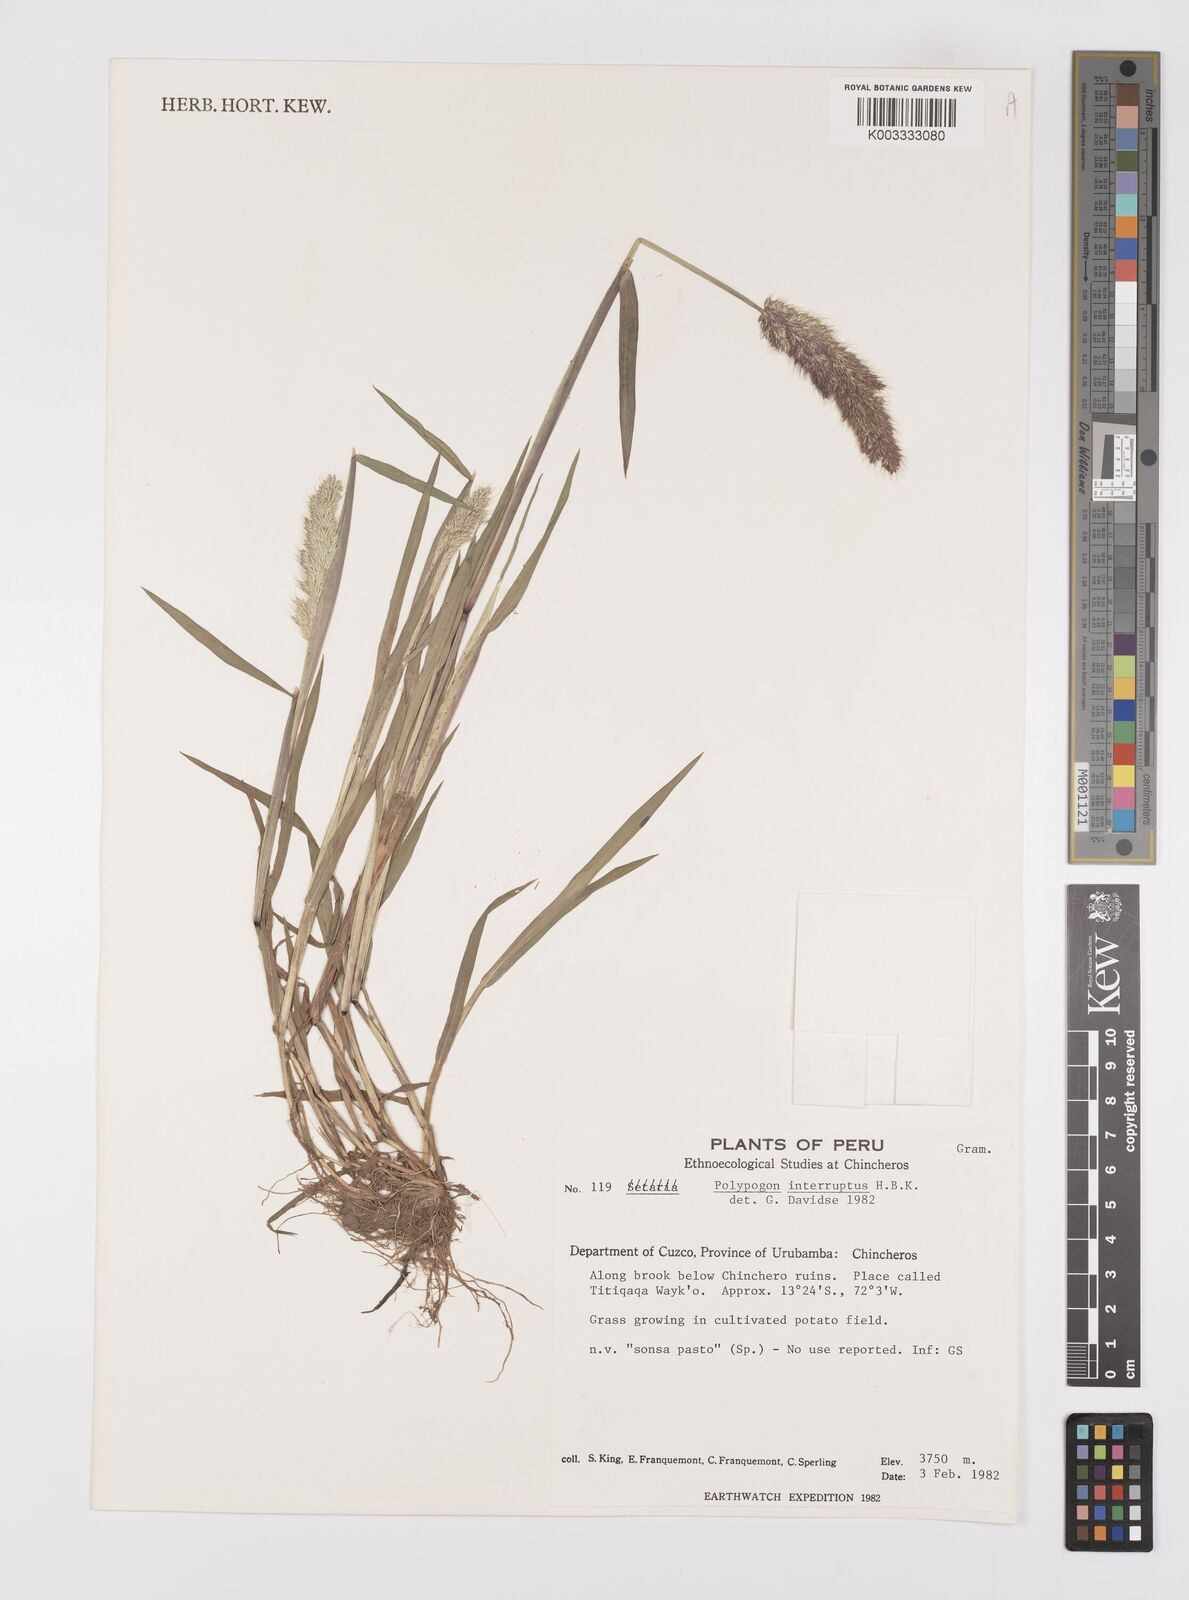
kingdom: Plantae
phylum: Tracheophyta
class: Liliopsida
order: Poales
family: Poaceae
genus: Polypogon
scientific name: Polypogon interruptus
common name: Ditch polypogon
